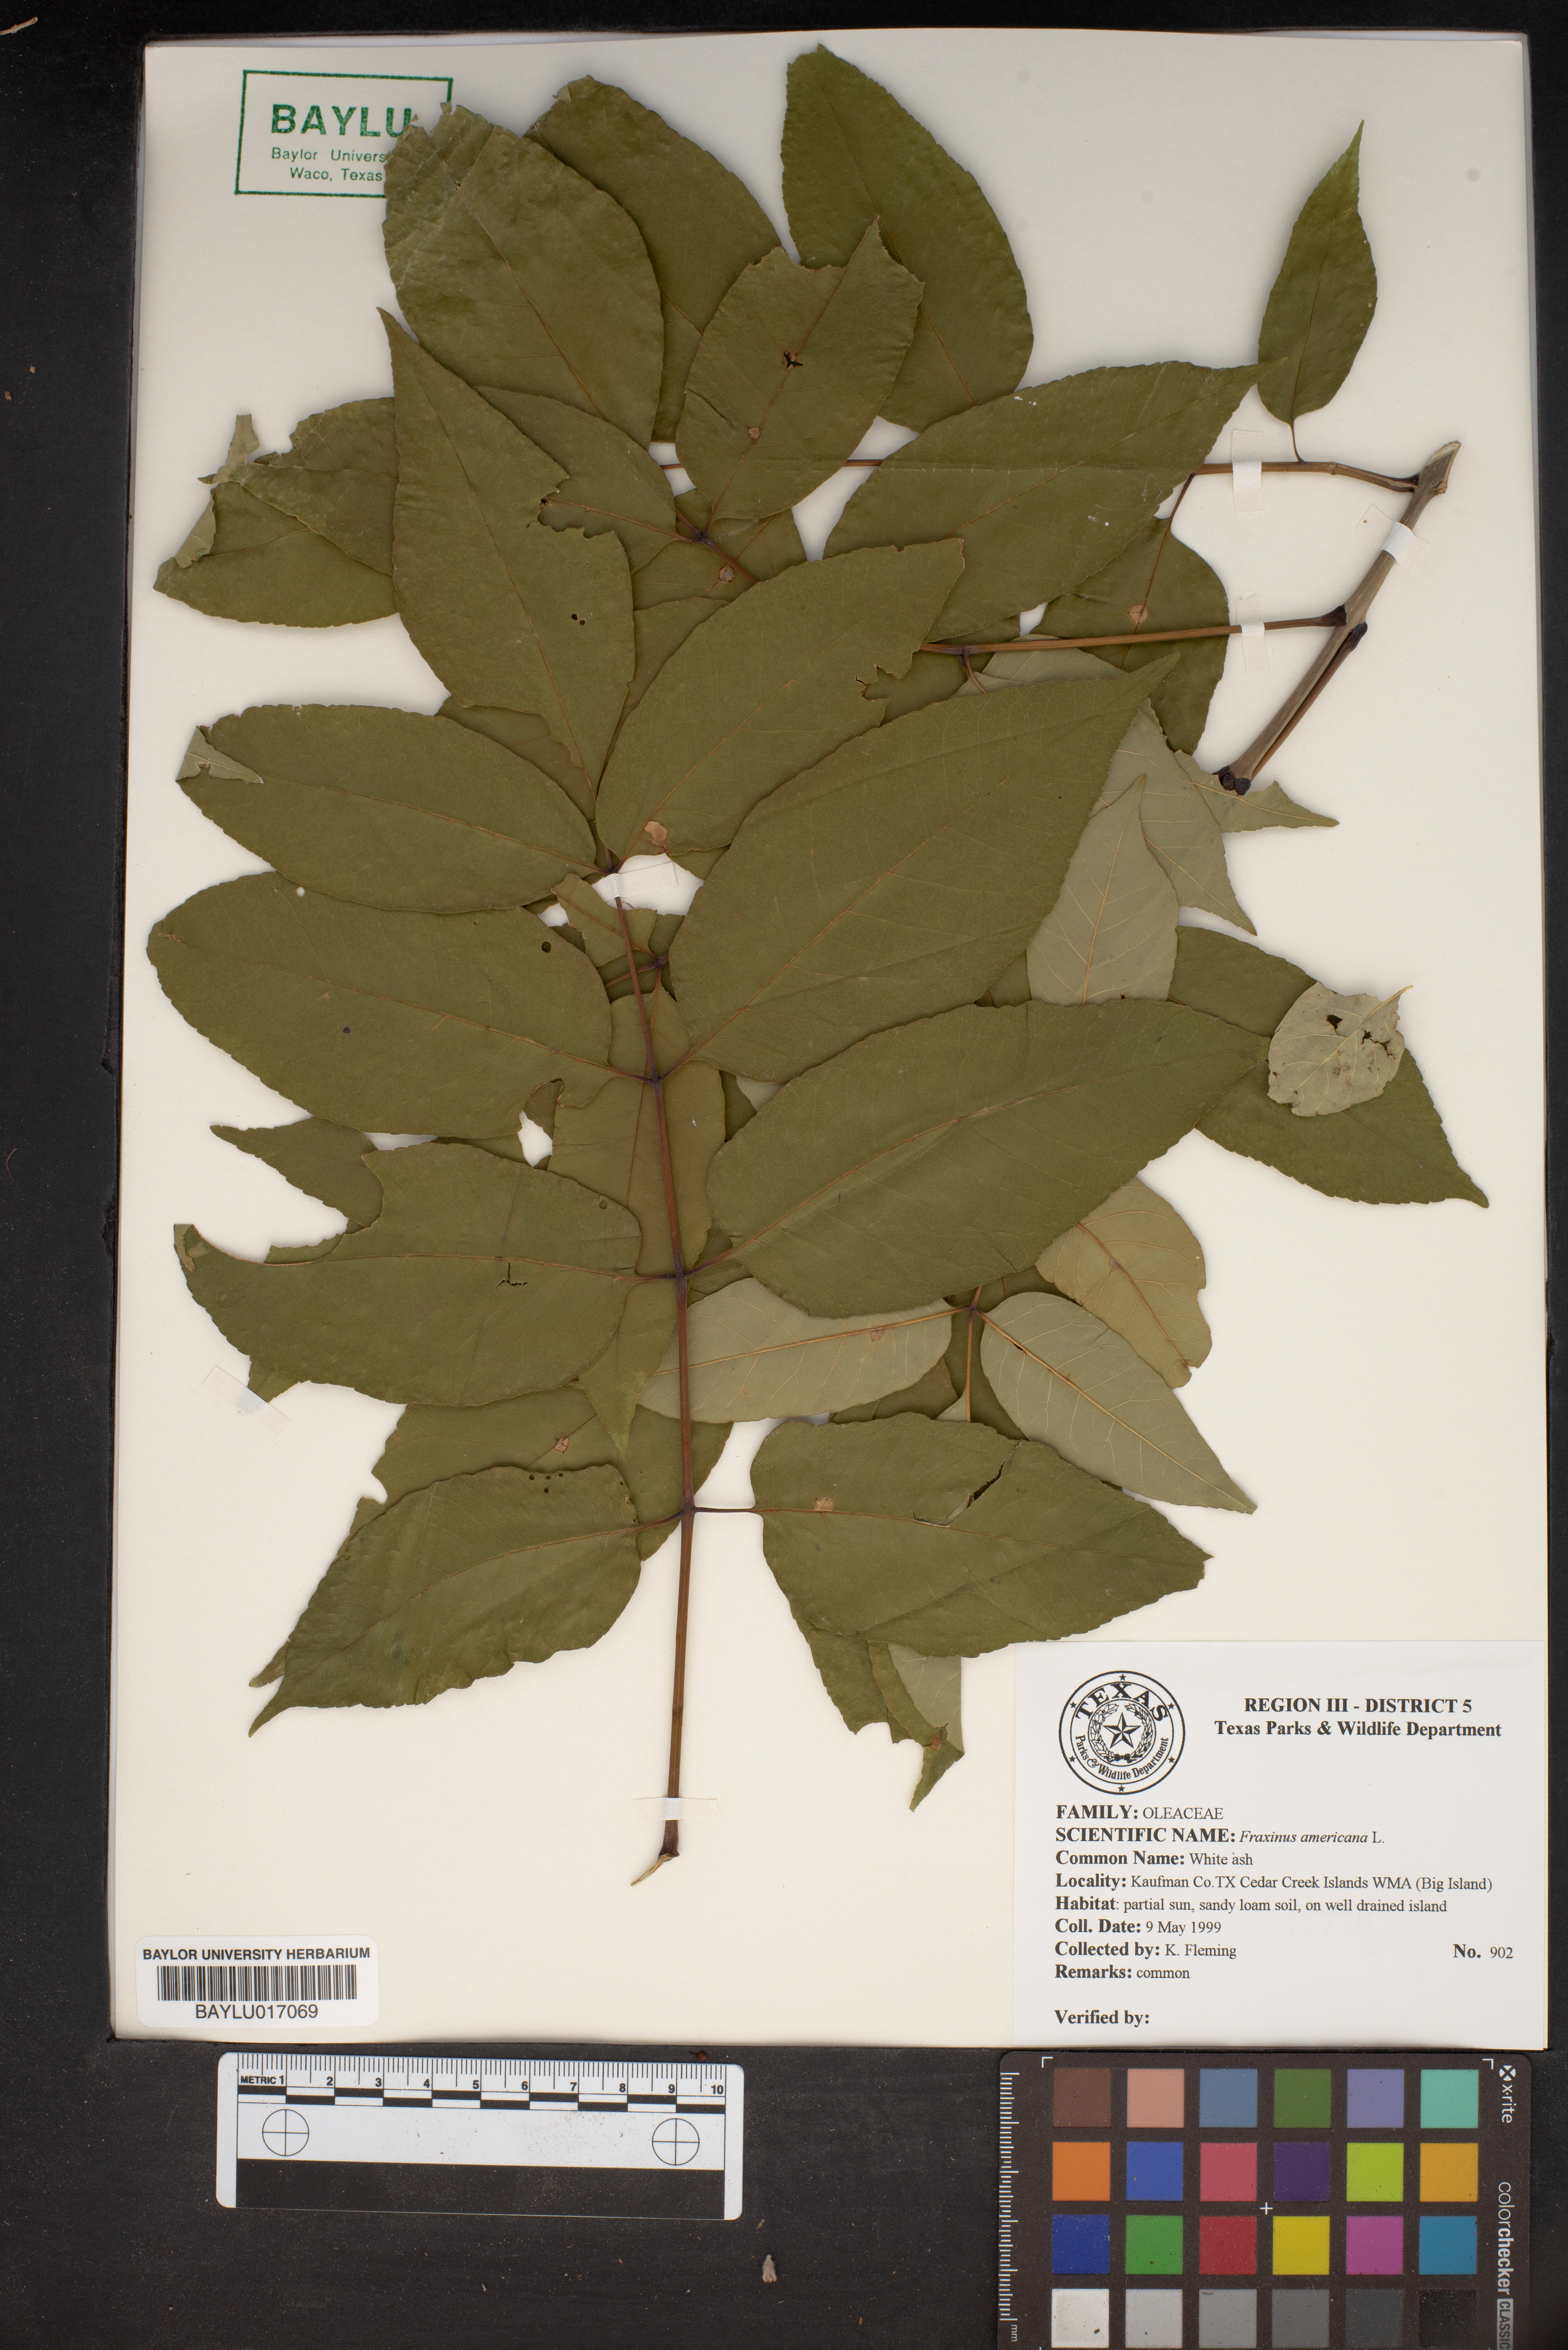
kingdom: Plantae
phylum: Tracheophyta
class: Magnoliopsida
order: Lamiales
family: Oleaceae
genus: Fraxinus
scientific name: Fraxinus americana
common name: White ash
